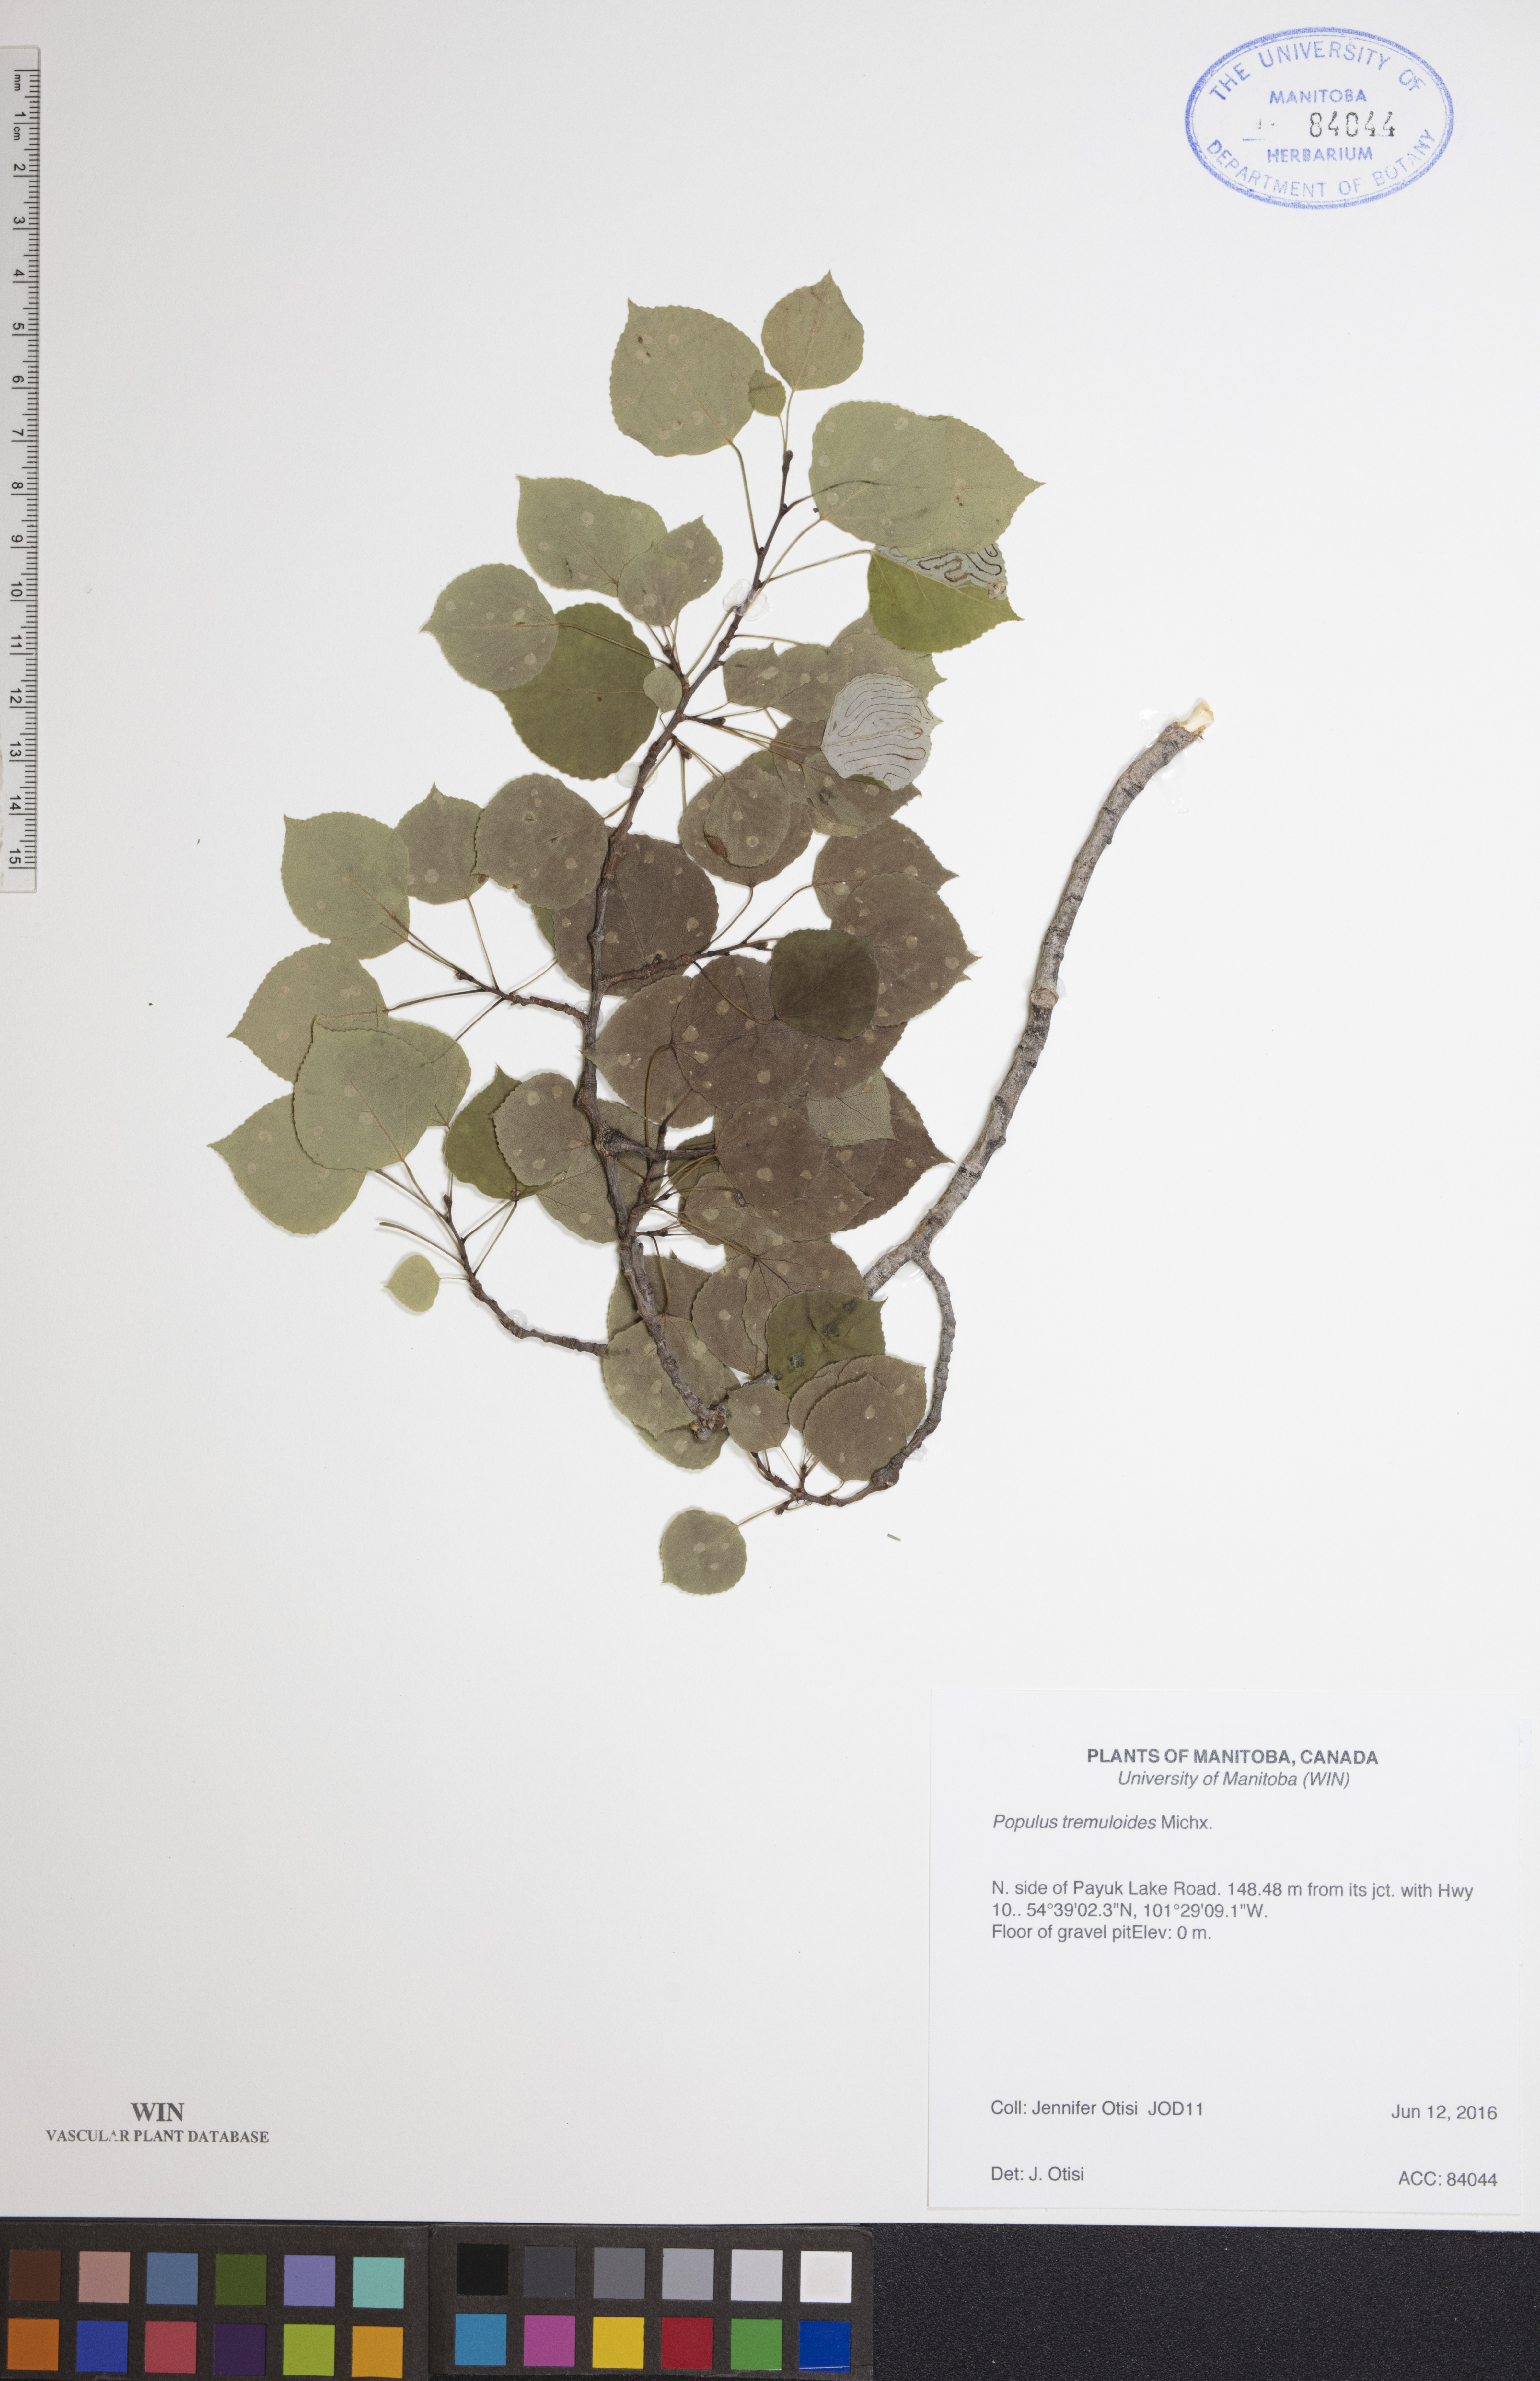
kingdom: Plantae
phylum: Tracheophyta
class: Magnoliopsida
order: Malpighiales
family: Salicaceae
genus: Populus
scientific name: Populus tremuloides
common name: Quaking aspen
